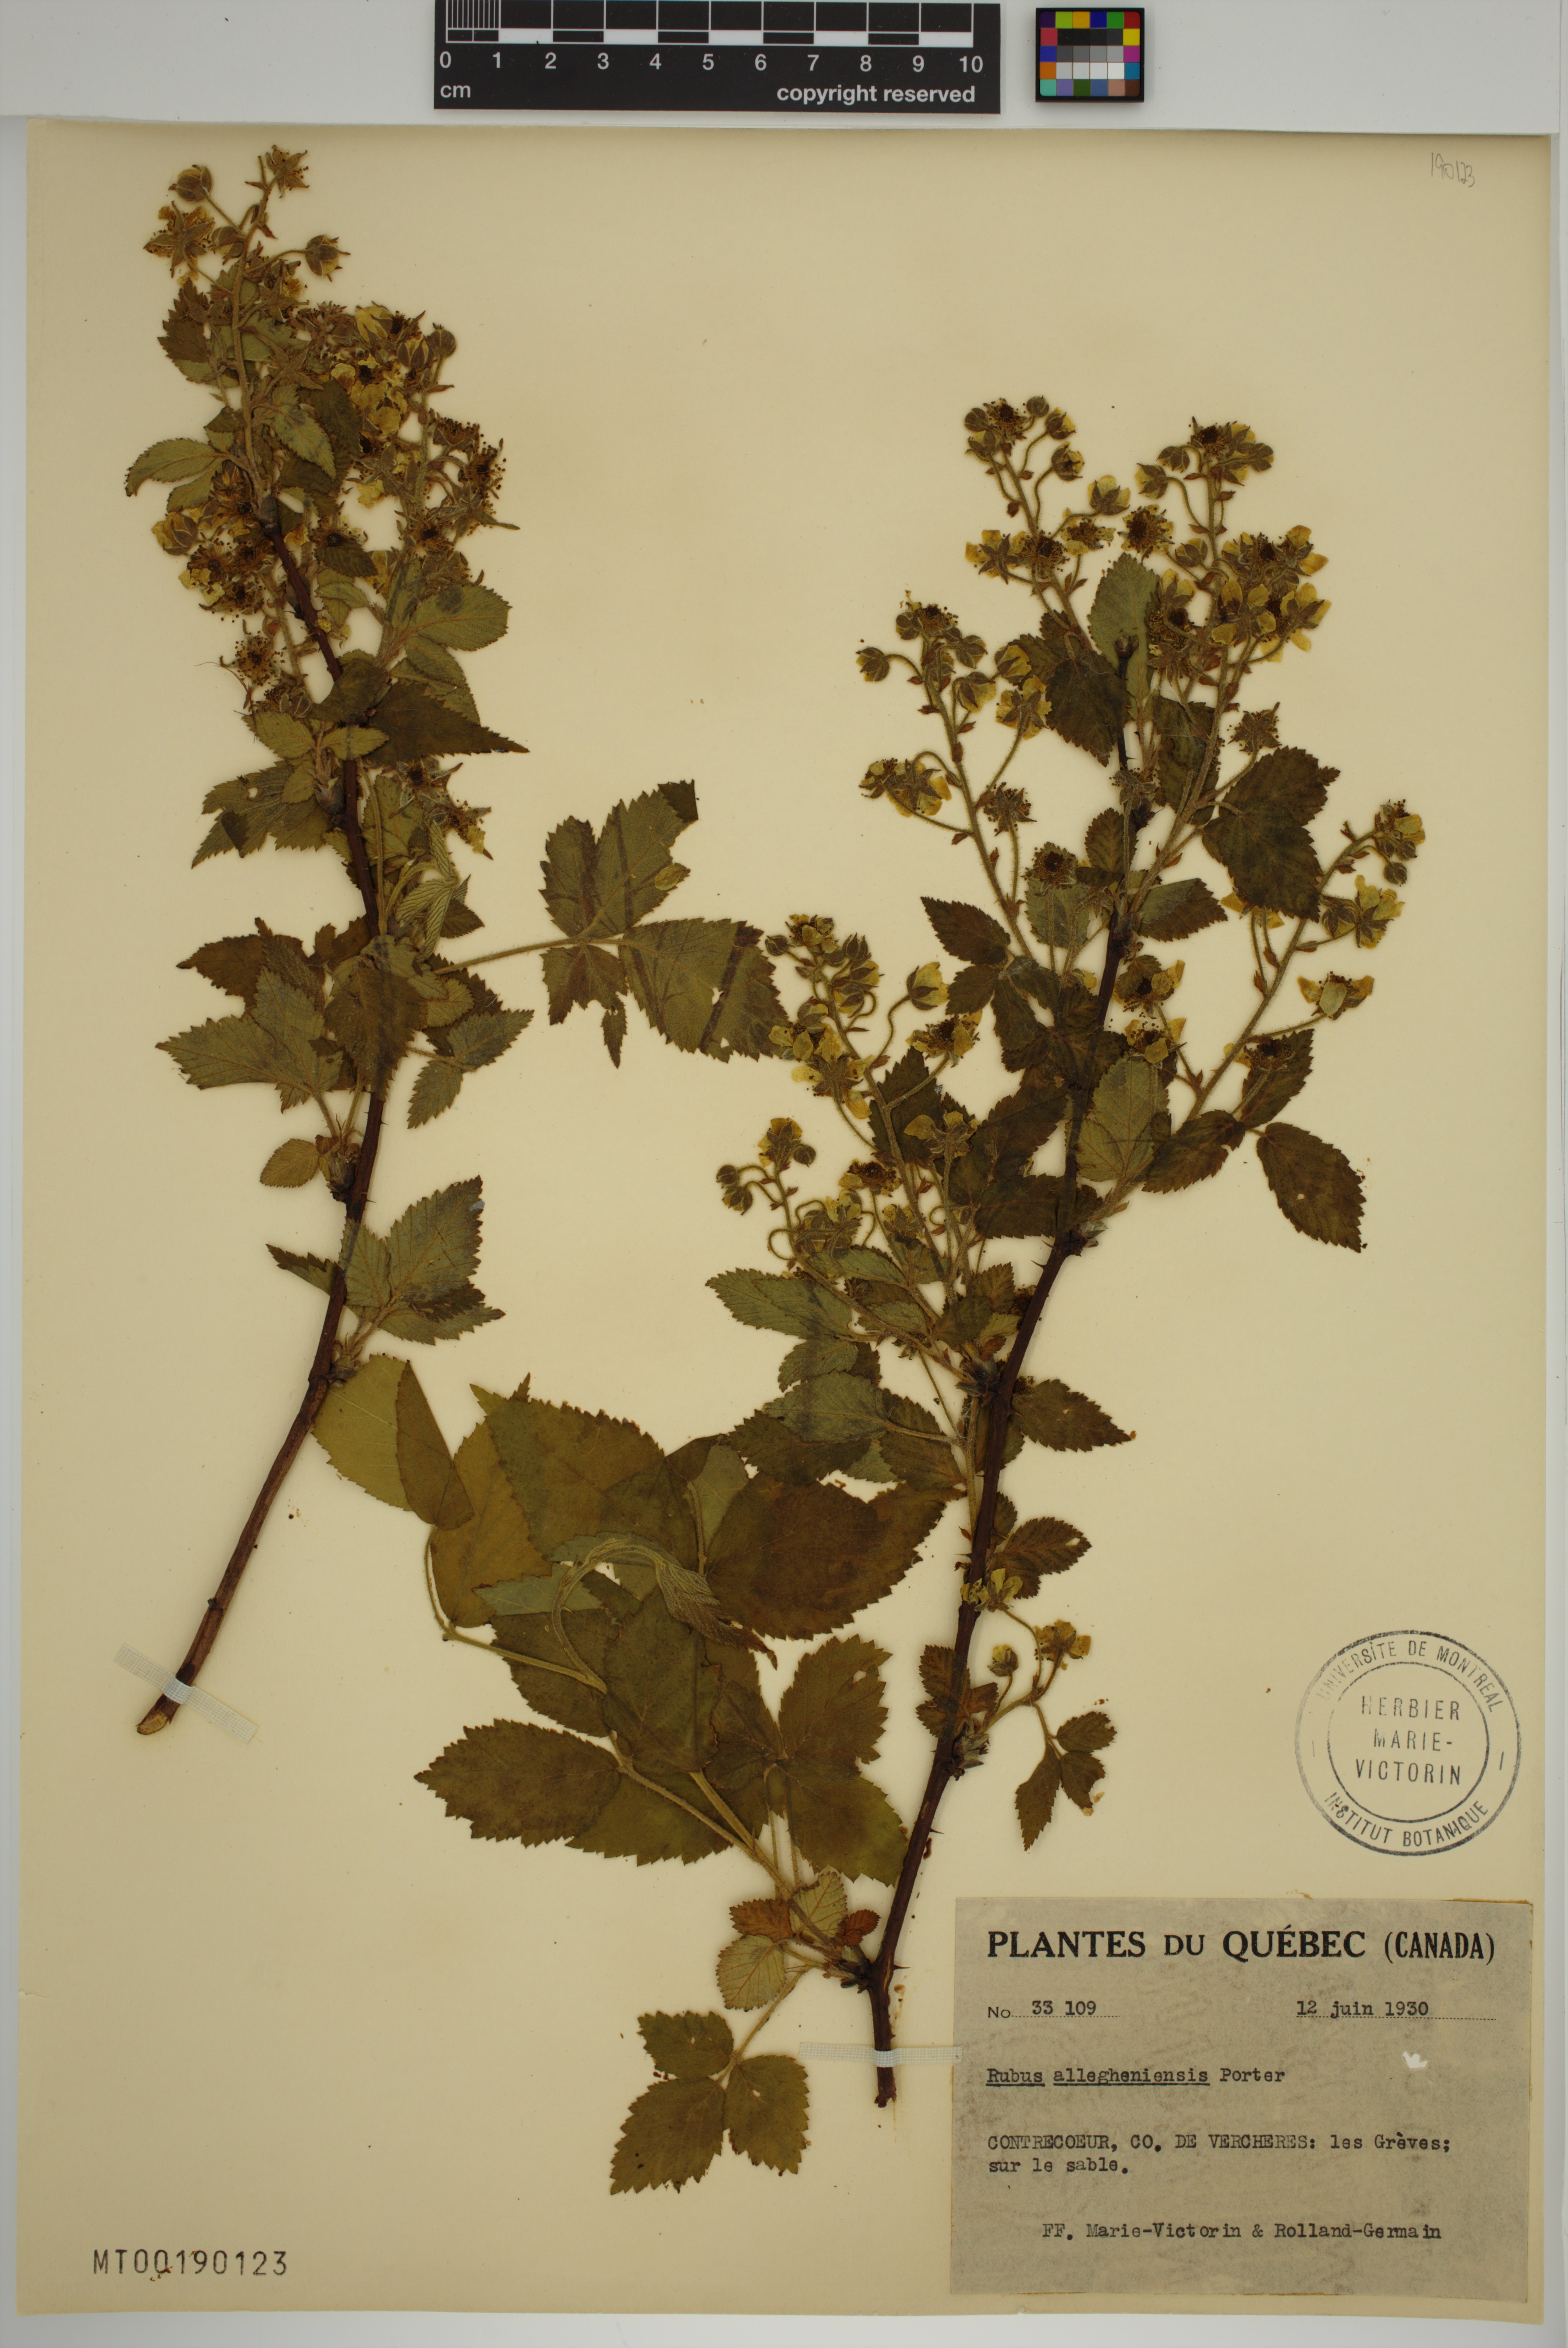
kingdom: Plantae
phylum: Tracheophyta
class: Magnoliopsida
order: Rosales
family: Rosaceae
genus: Rubus
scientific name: Rubus allegheniensis
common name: Allegheny blackberry
